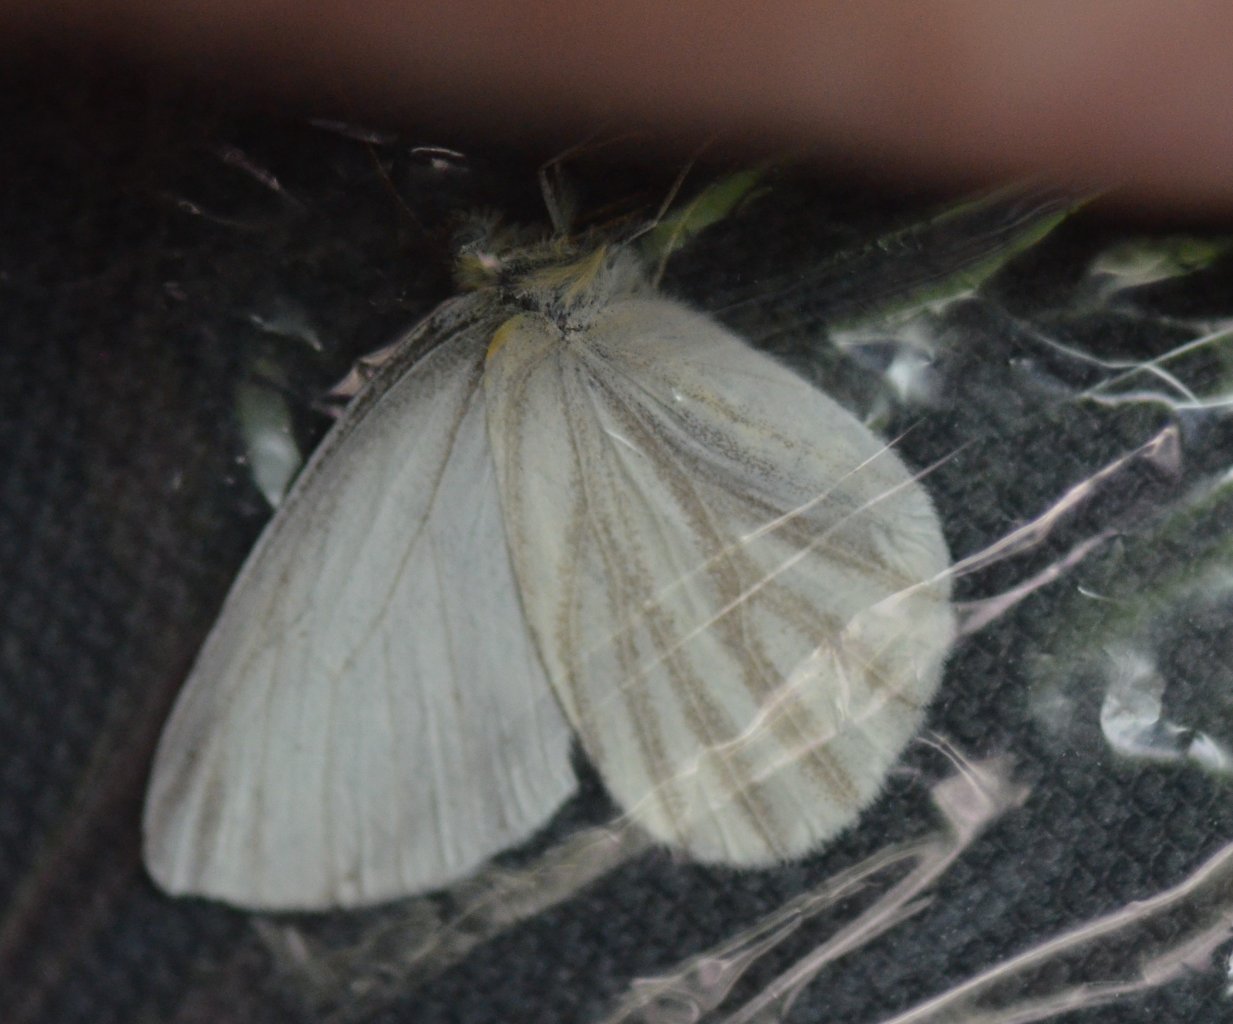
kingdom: Animalia
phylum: Arthropoda
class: Insecta
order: Lepidoptera
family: Pieridae
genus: Pieris
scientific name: Pieris virginiensis
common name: West Virginia White
